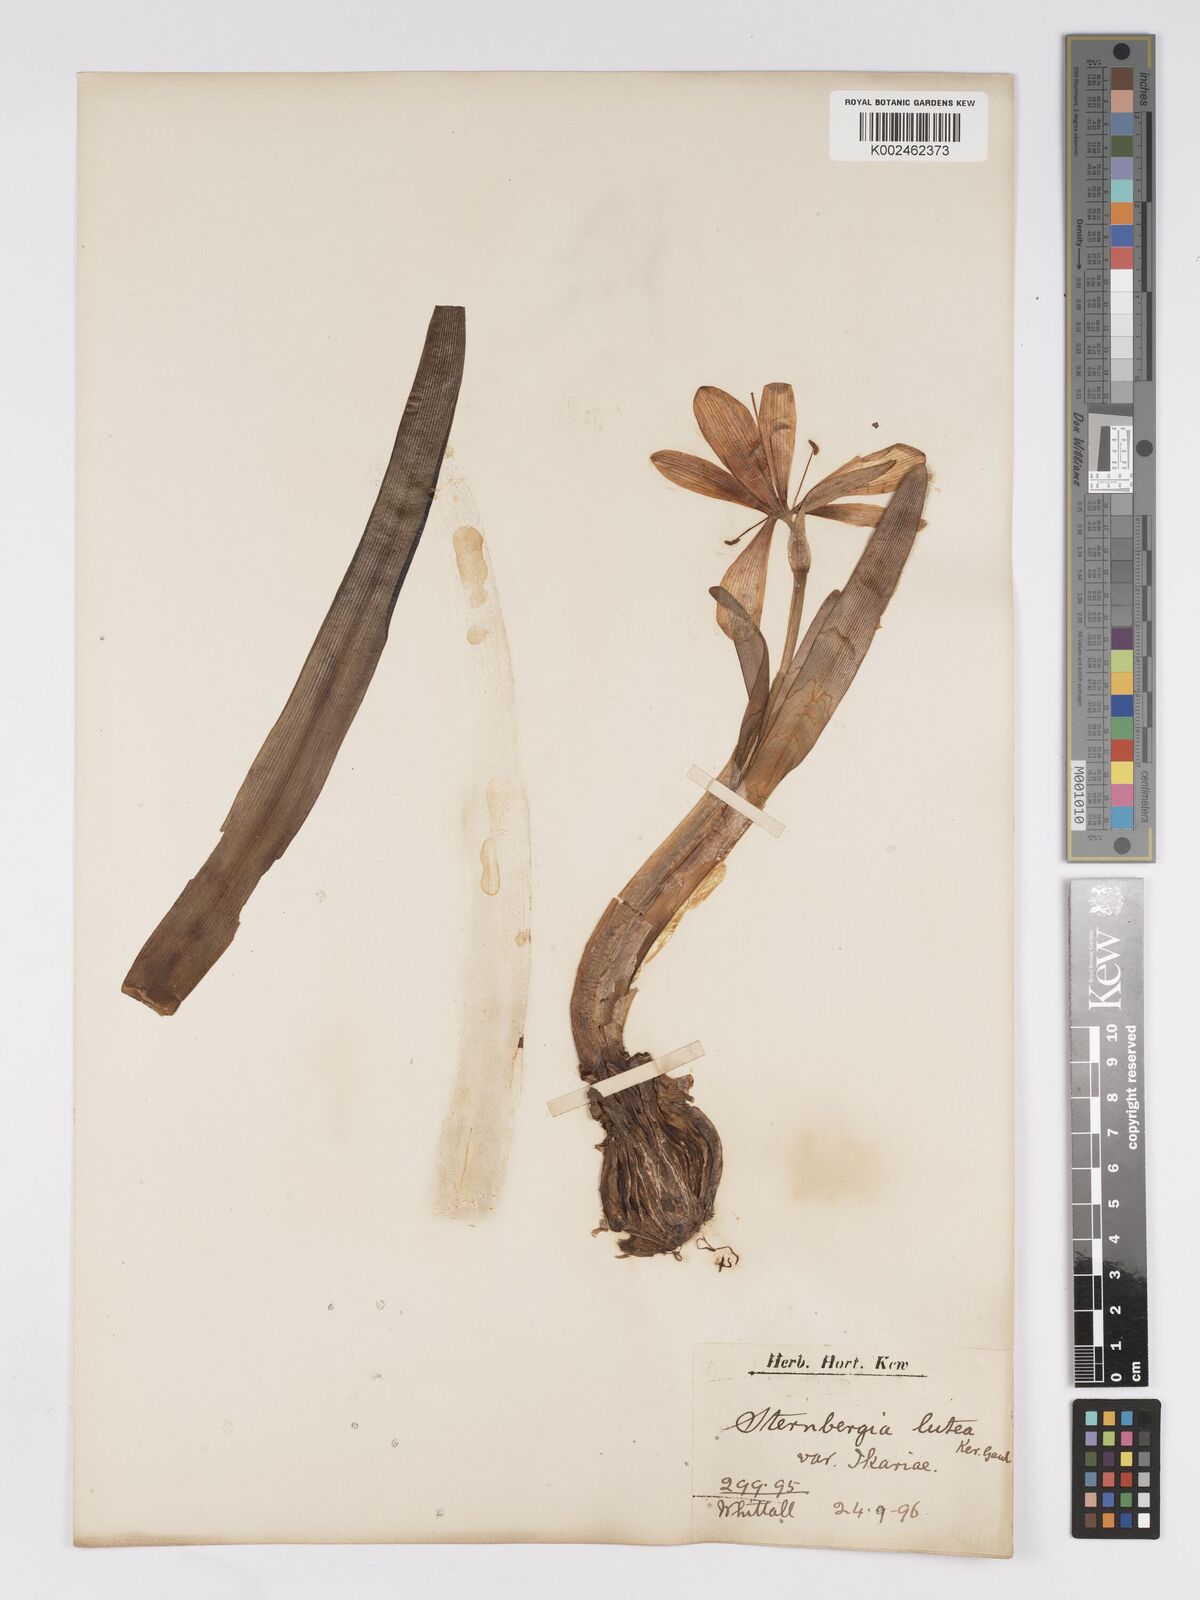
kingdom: Plantae
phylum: Tracheophyta
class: Liliopsida
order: Asparagales
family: Amaryllidaceae
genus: Sternbergia
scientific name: Sternbergia lutea
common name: Winter daffodil
